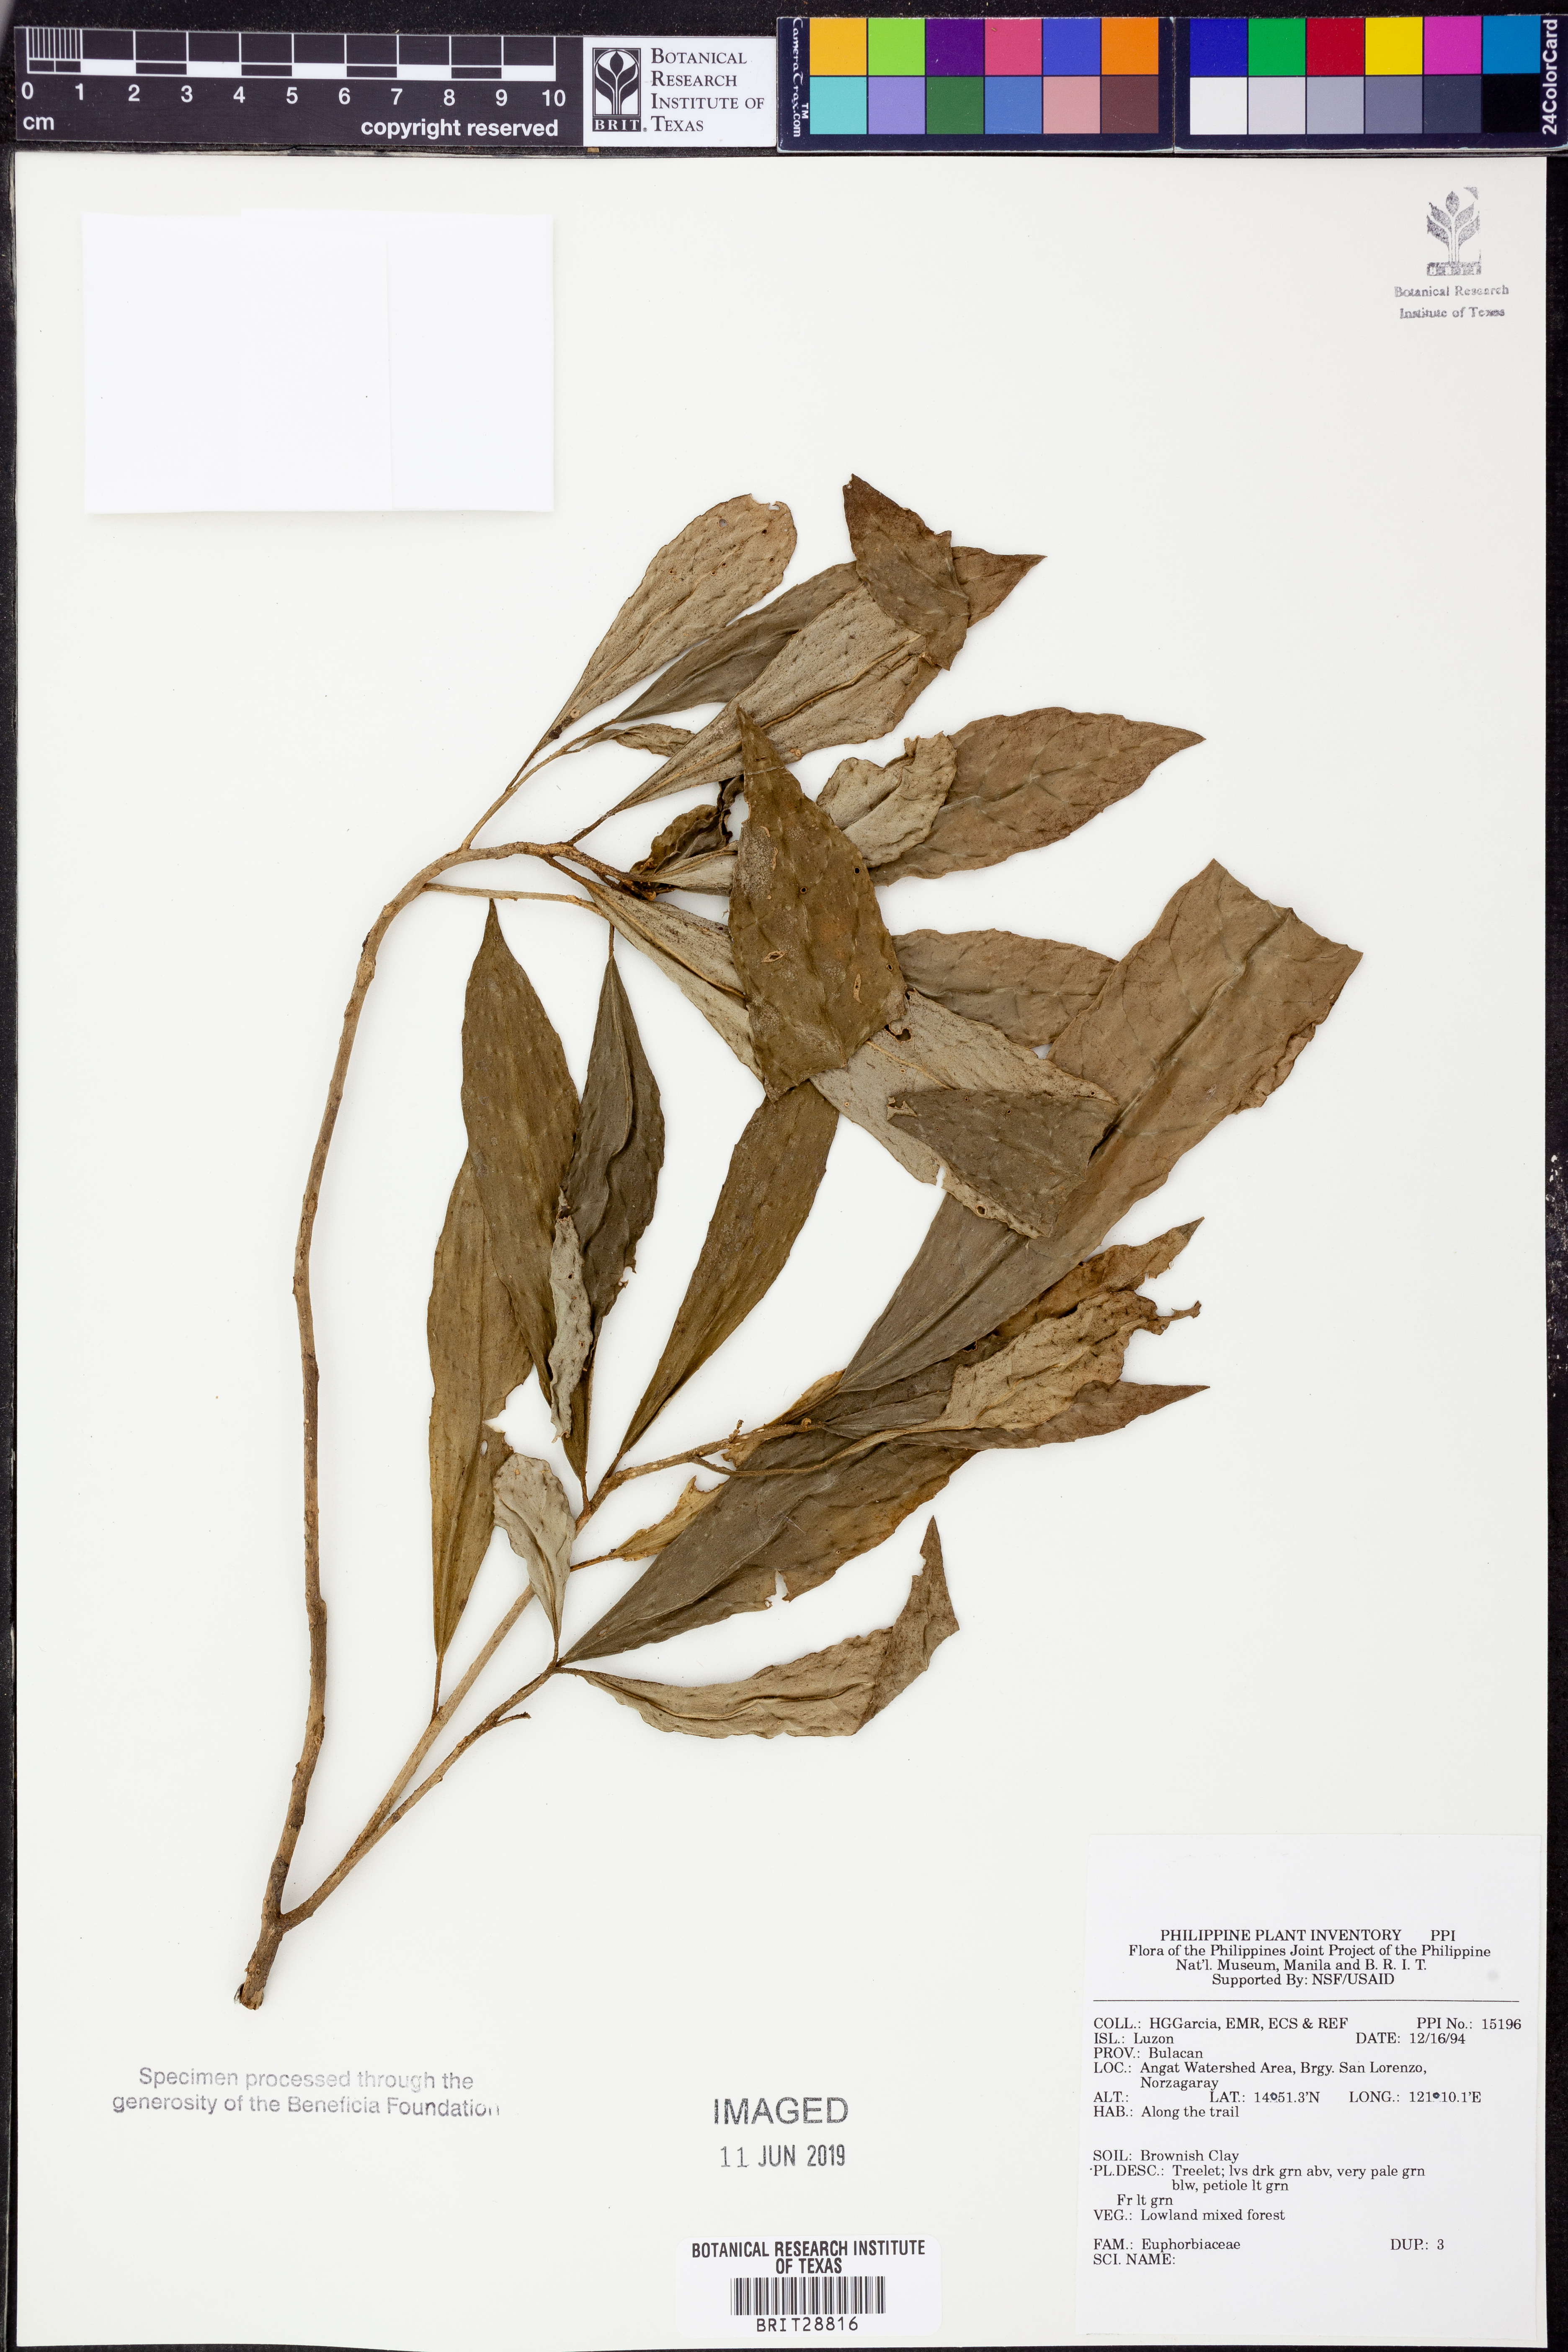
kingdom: Plantae
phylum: Tracheophyta
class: Magnoliopsida
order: Malpighiales
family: Euphorbiaceae
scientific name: Euphorbiaceae
